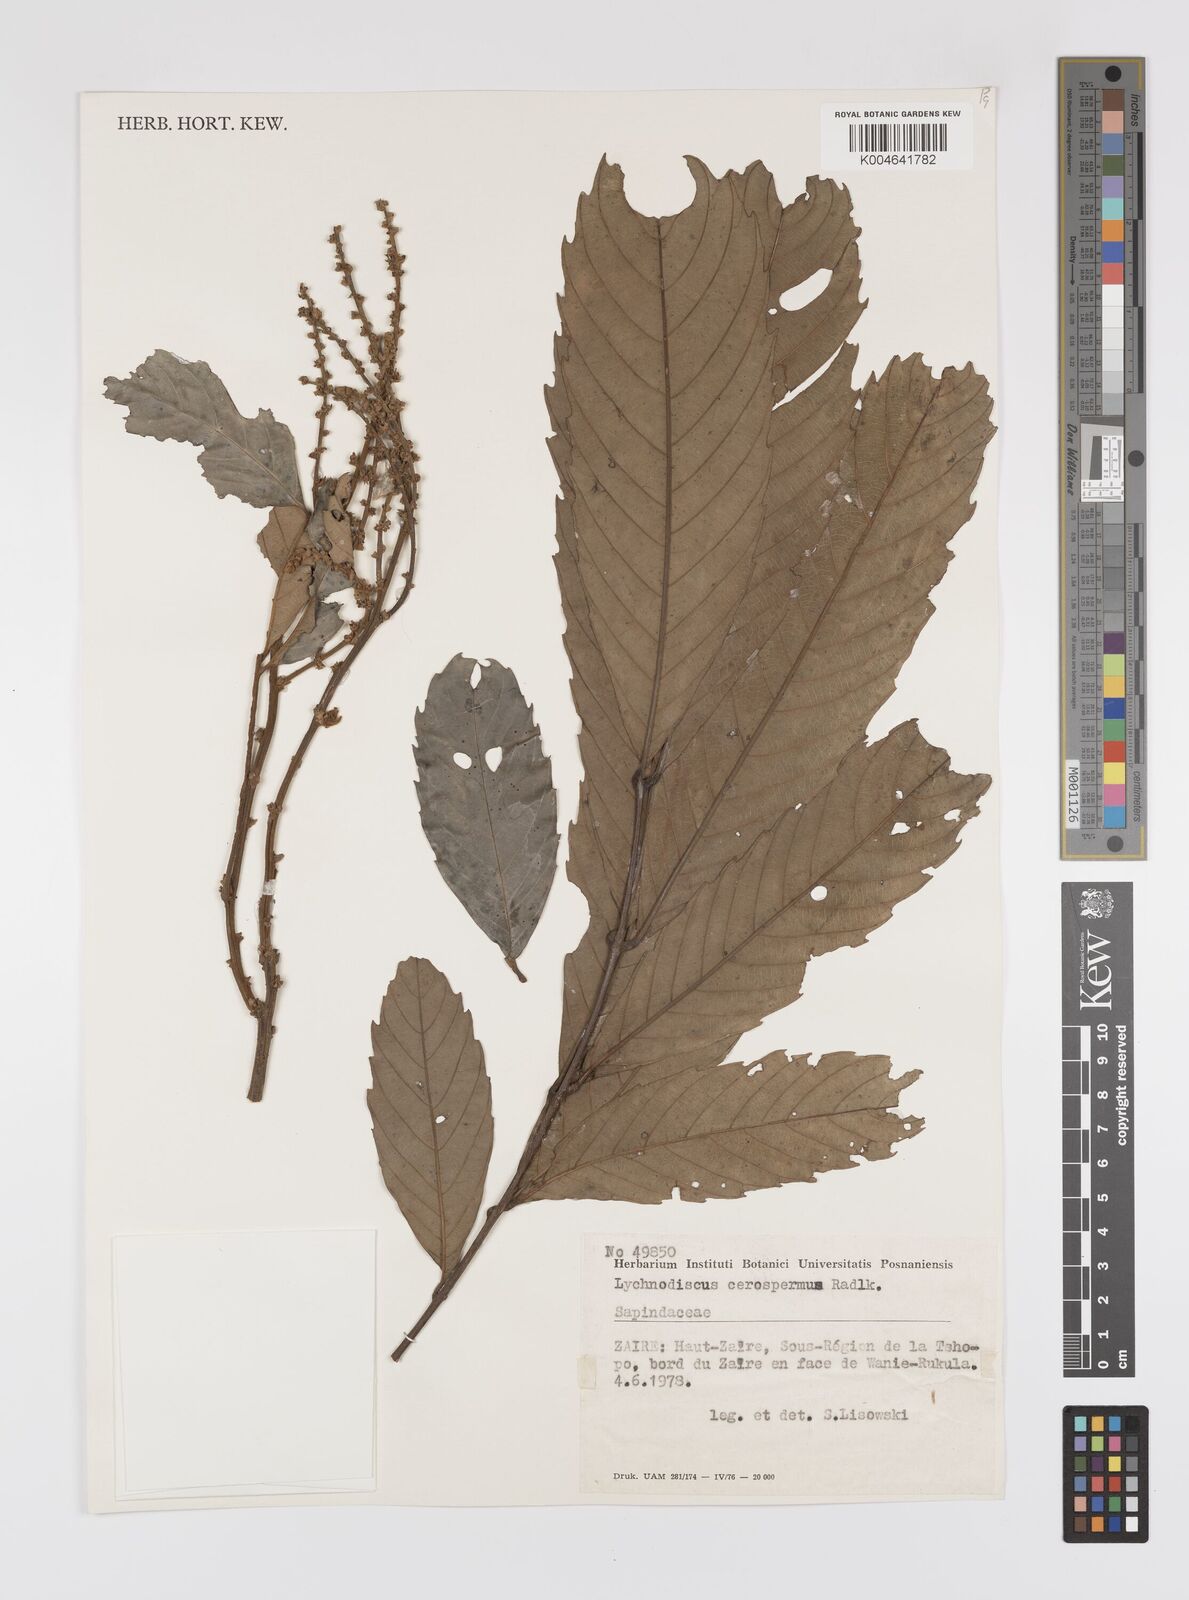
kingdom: Plantae
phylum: Tracheophyta
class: Magnoliopsida
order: Sapindales
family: Sapindaceae
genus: Lychnodiscus
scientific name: Lychnodiscus cerospermus
